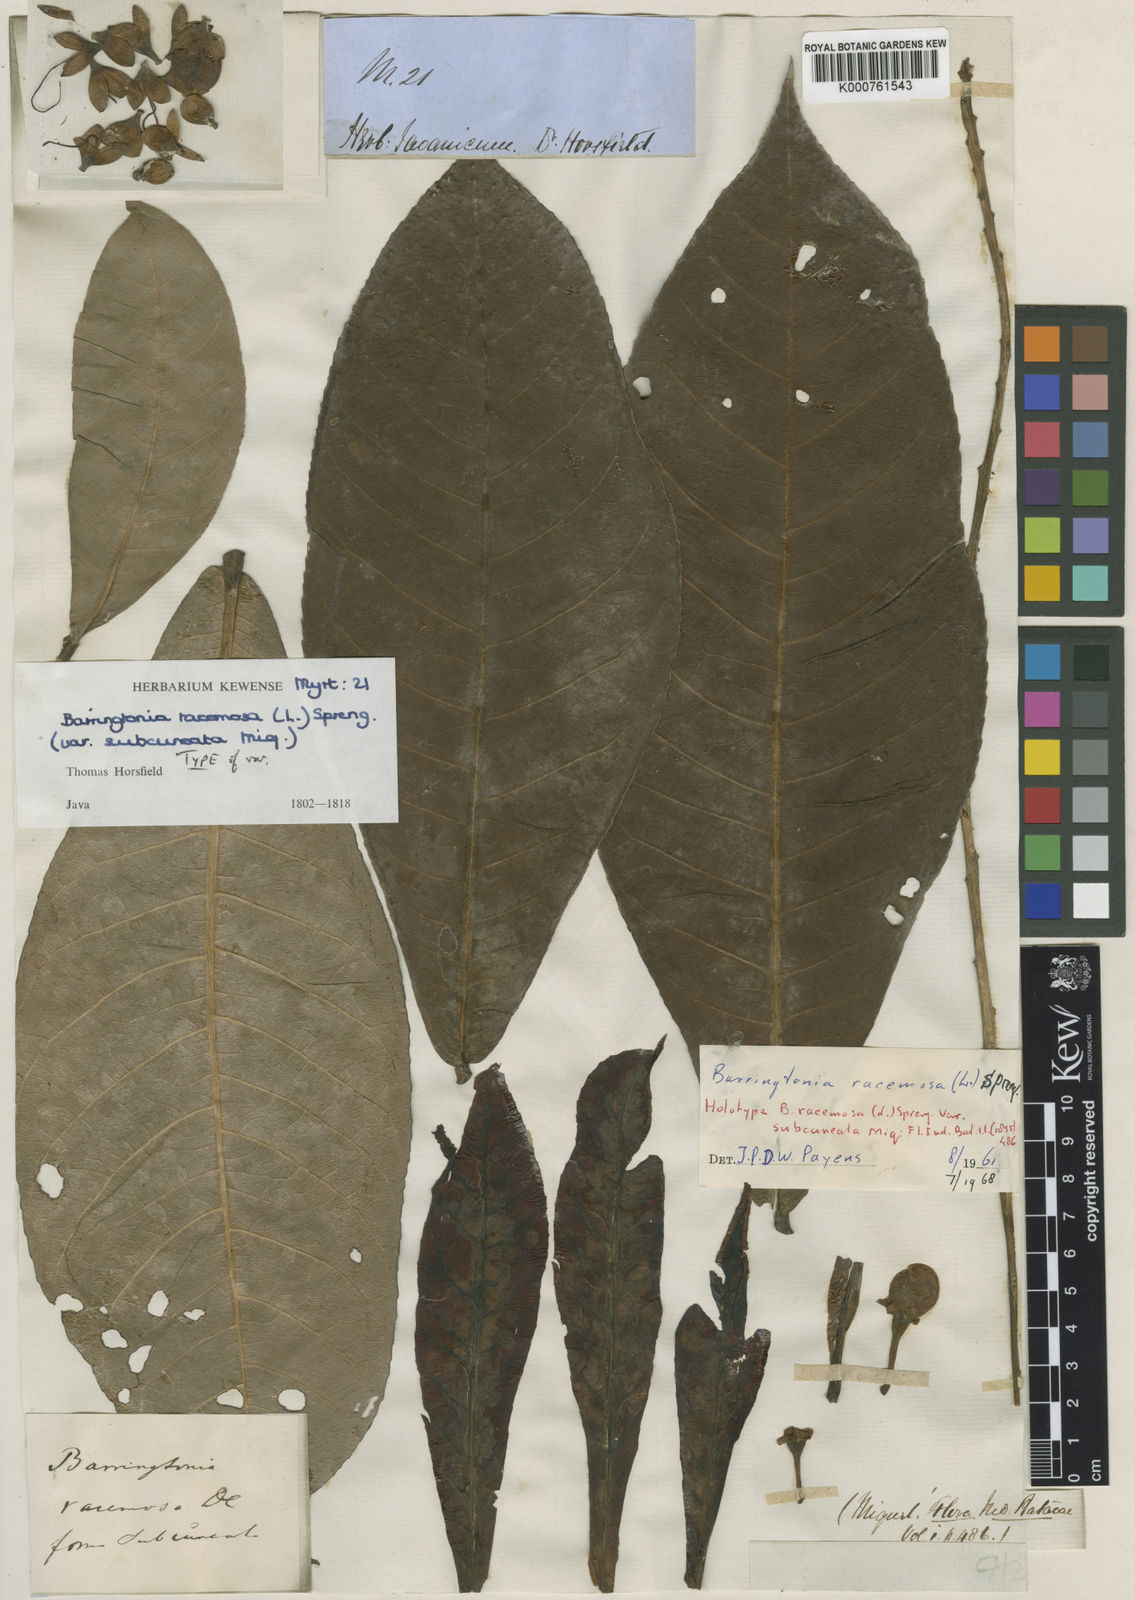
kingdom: Plantae
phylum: Tracheophyta
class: Magnoliopsida
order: Ericales
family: Lecythidaceae
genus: Barringtonia
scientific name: Barringtonia racemosa
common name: Brackwater mangrove
